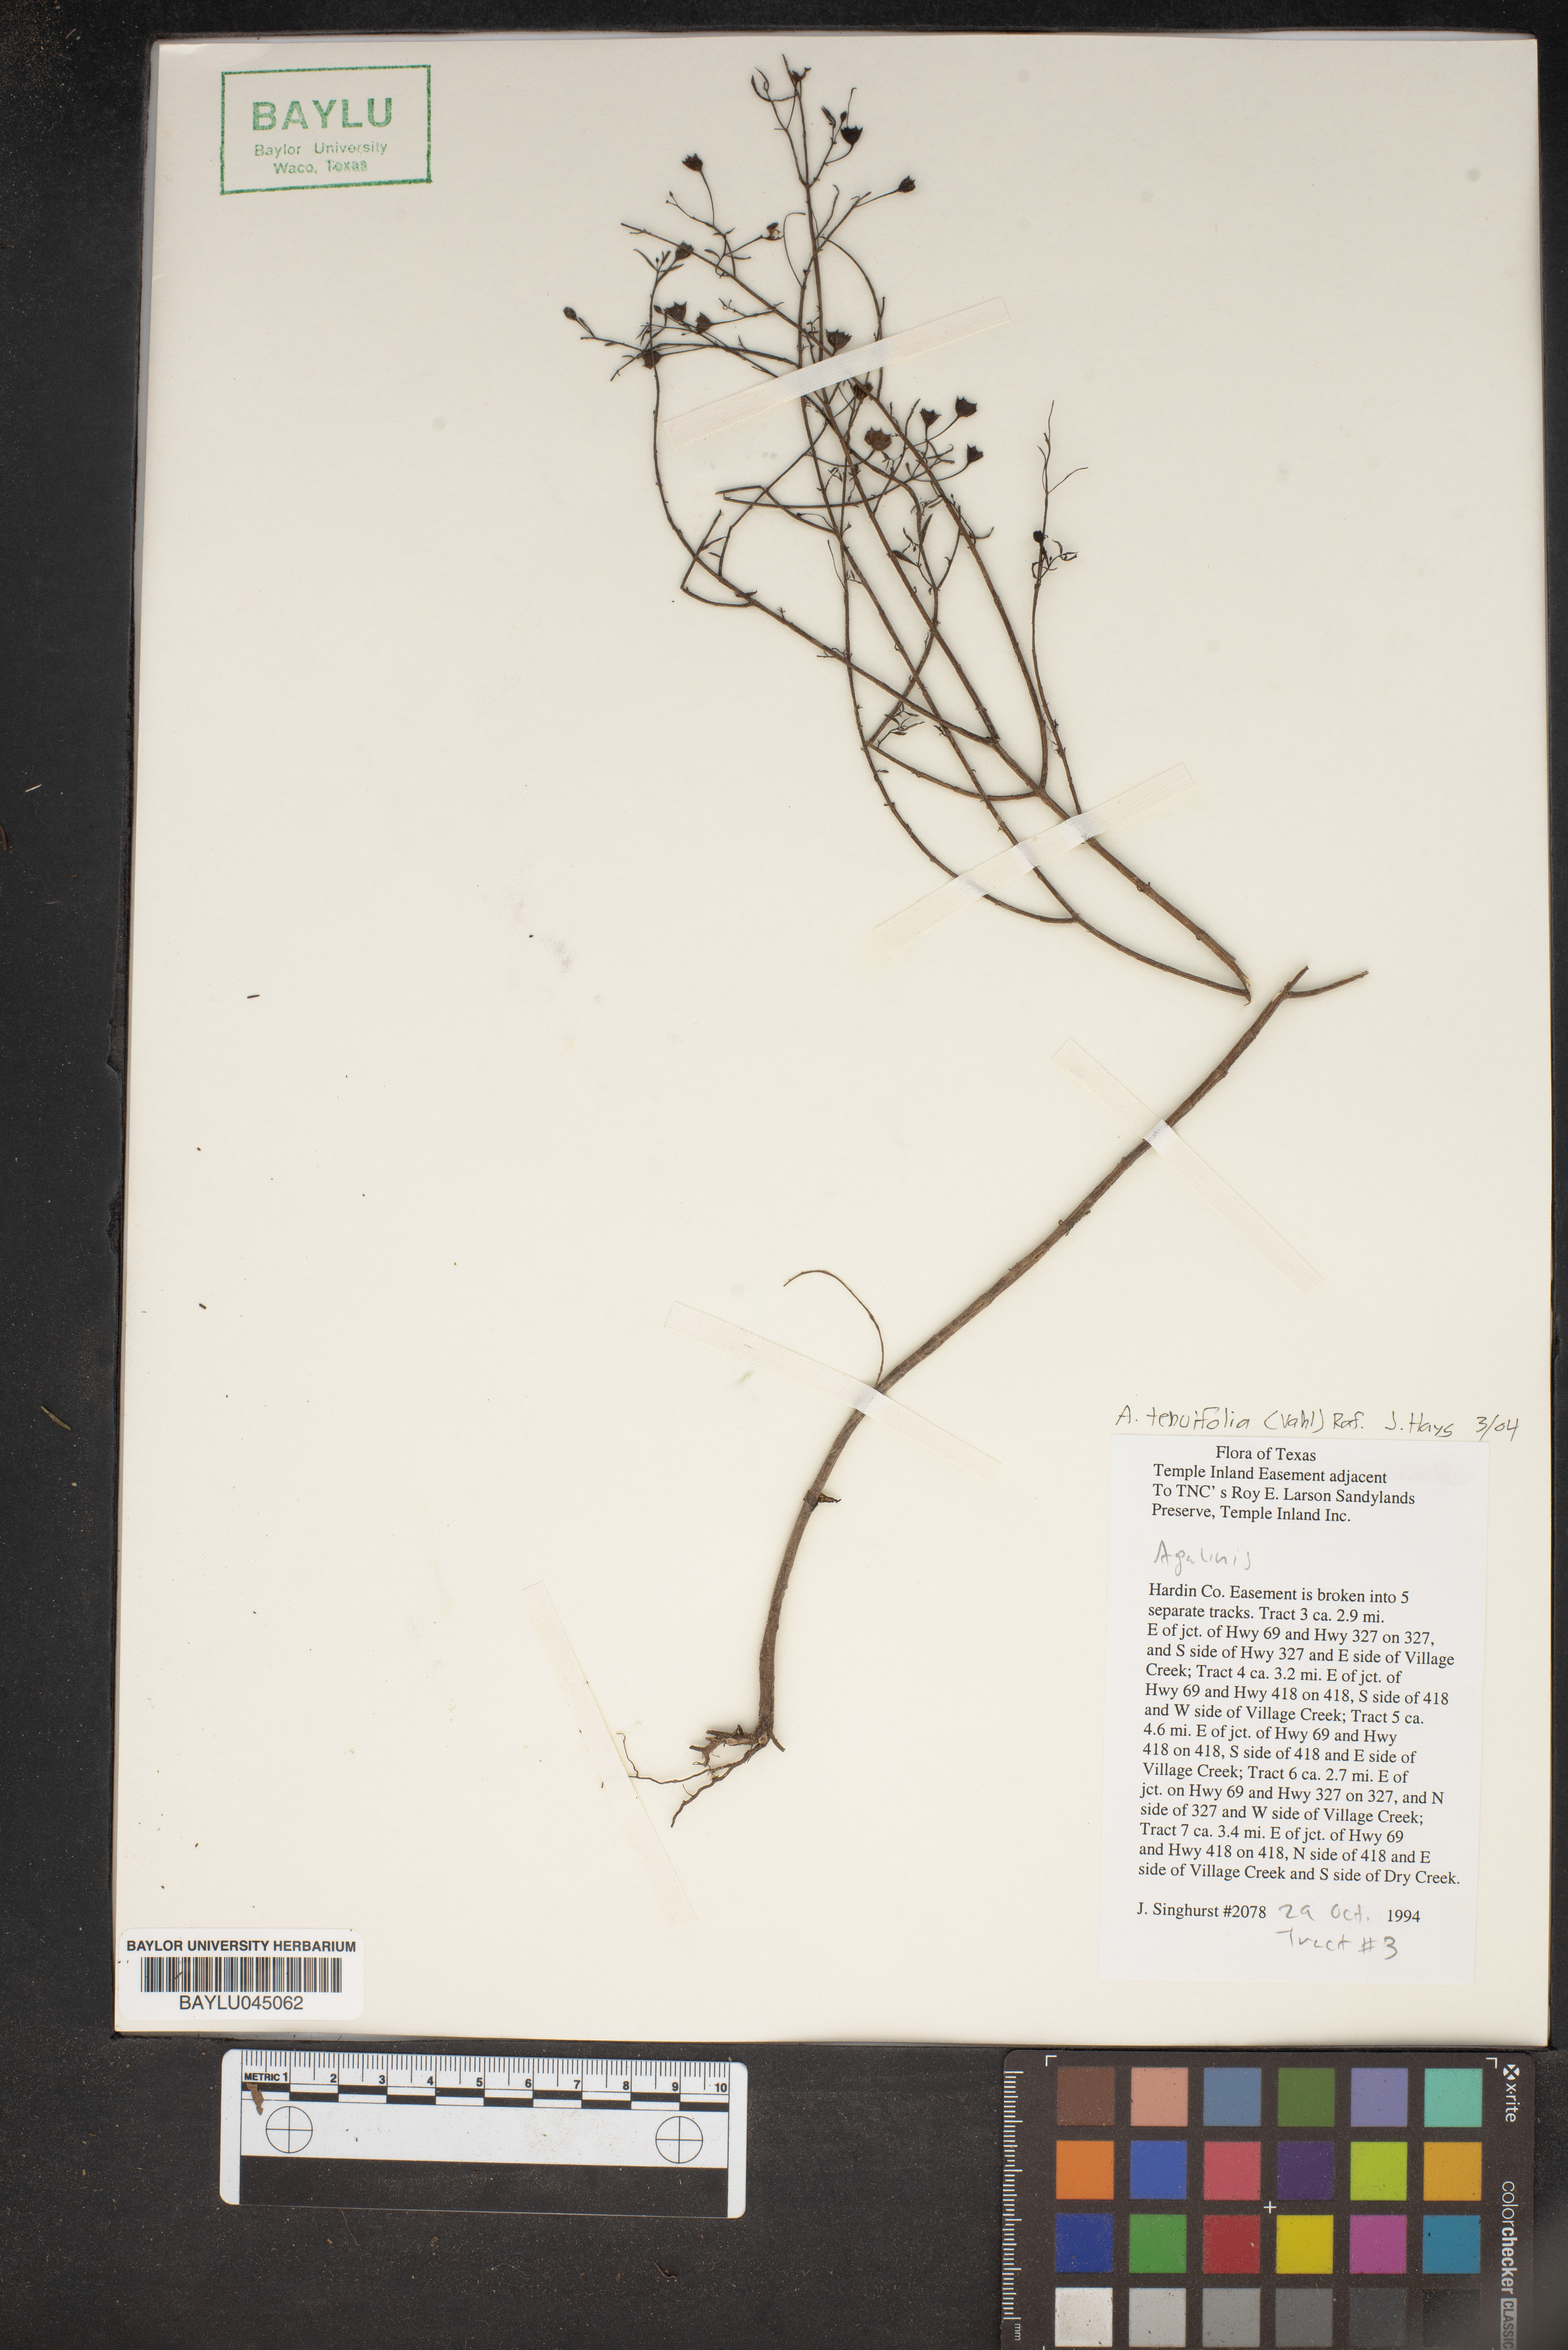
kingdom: Plantae
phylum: Tracheophyta
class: Magnoliopsida
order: Lamiales
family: Orobanchaceae
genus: Agalinis
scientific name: Agalinis tenuifolia
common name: Slender agalinis
